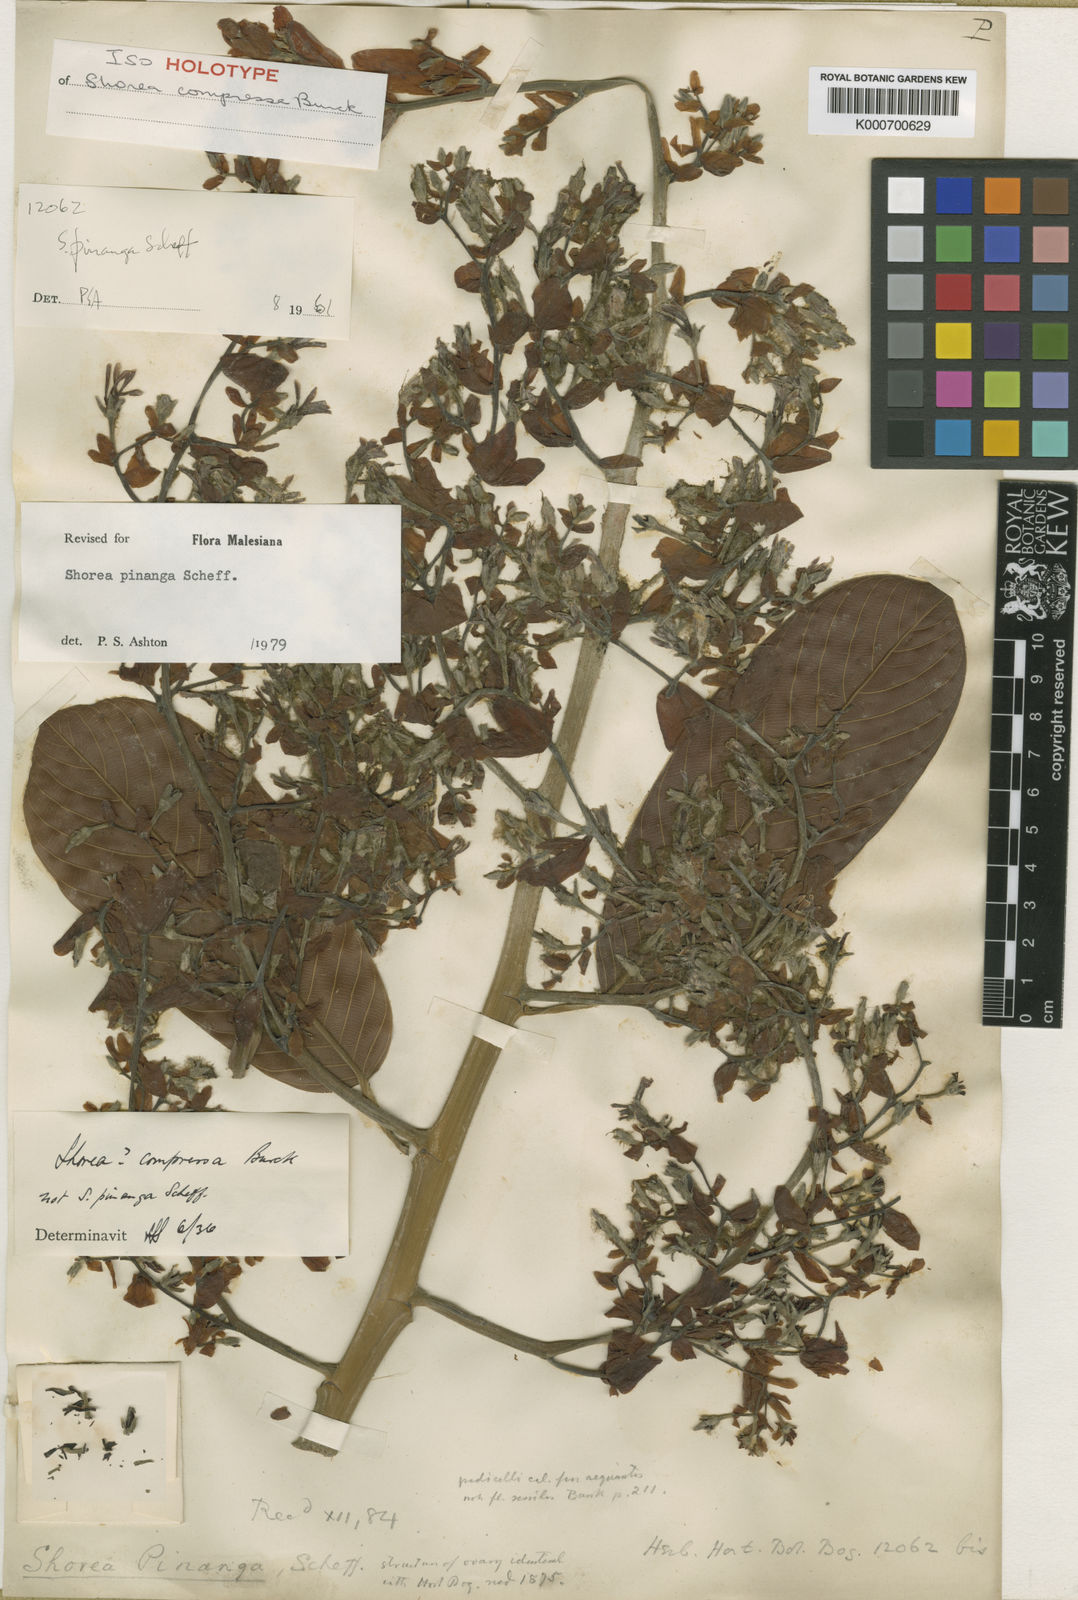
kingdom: Plantae
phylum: Tracheophyta
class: Magnoliopsida
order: Malvales
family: Dipterocarpaceae
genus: Shorea
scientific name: Shorea pinanga
